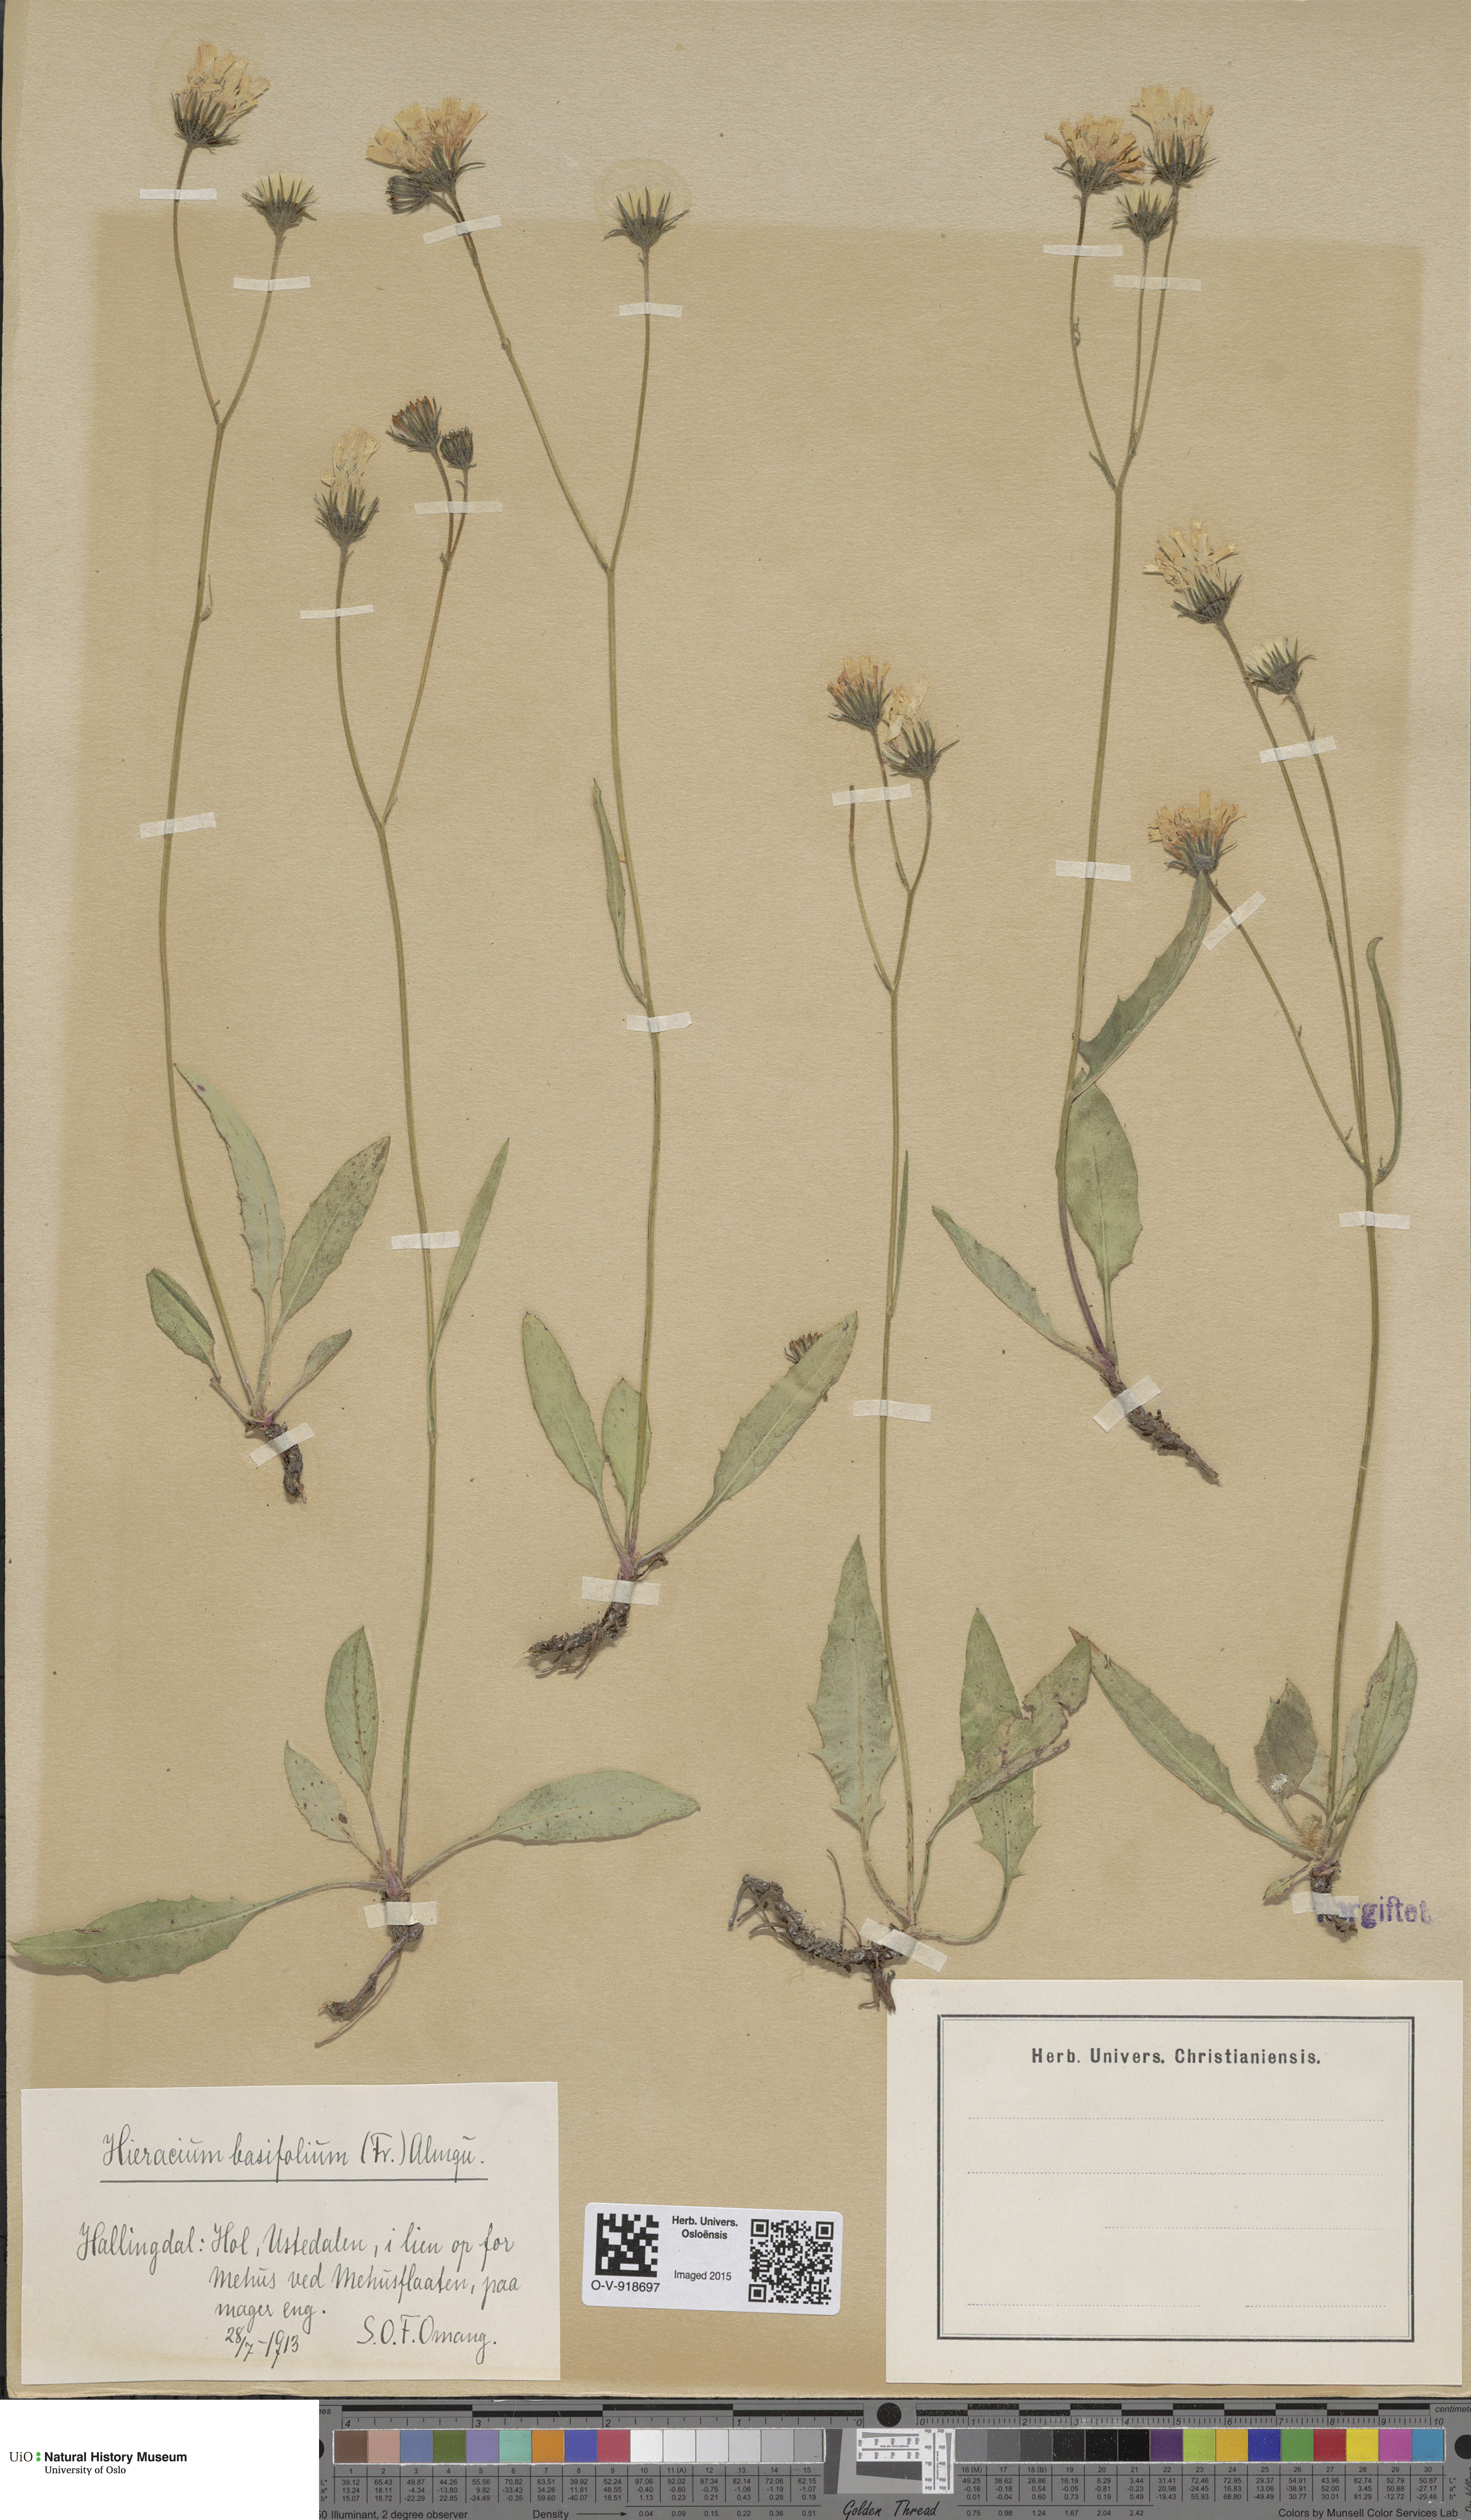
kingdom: Plantae
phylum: Tracheophyta
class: Magnoliopsida
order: Asterales
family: Asteraceae
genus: Hieracium
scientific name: Hieracium basifolium
